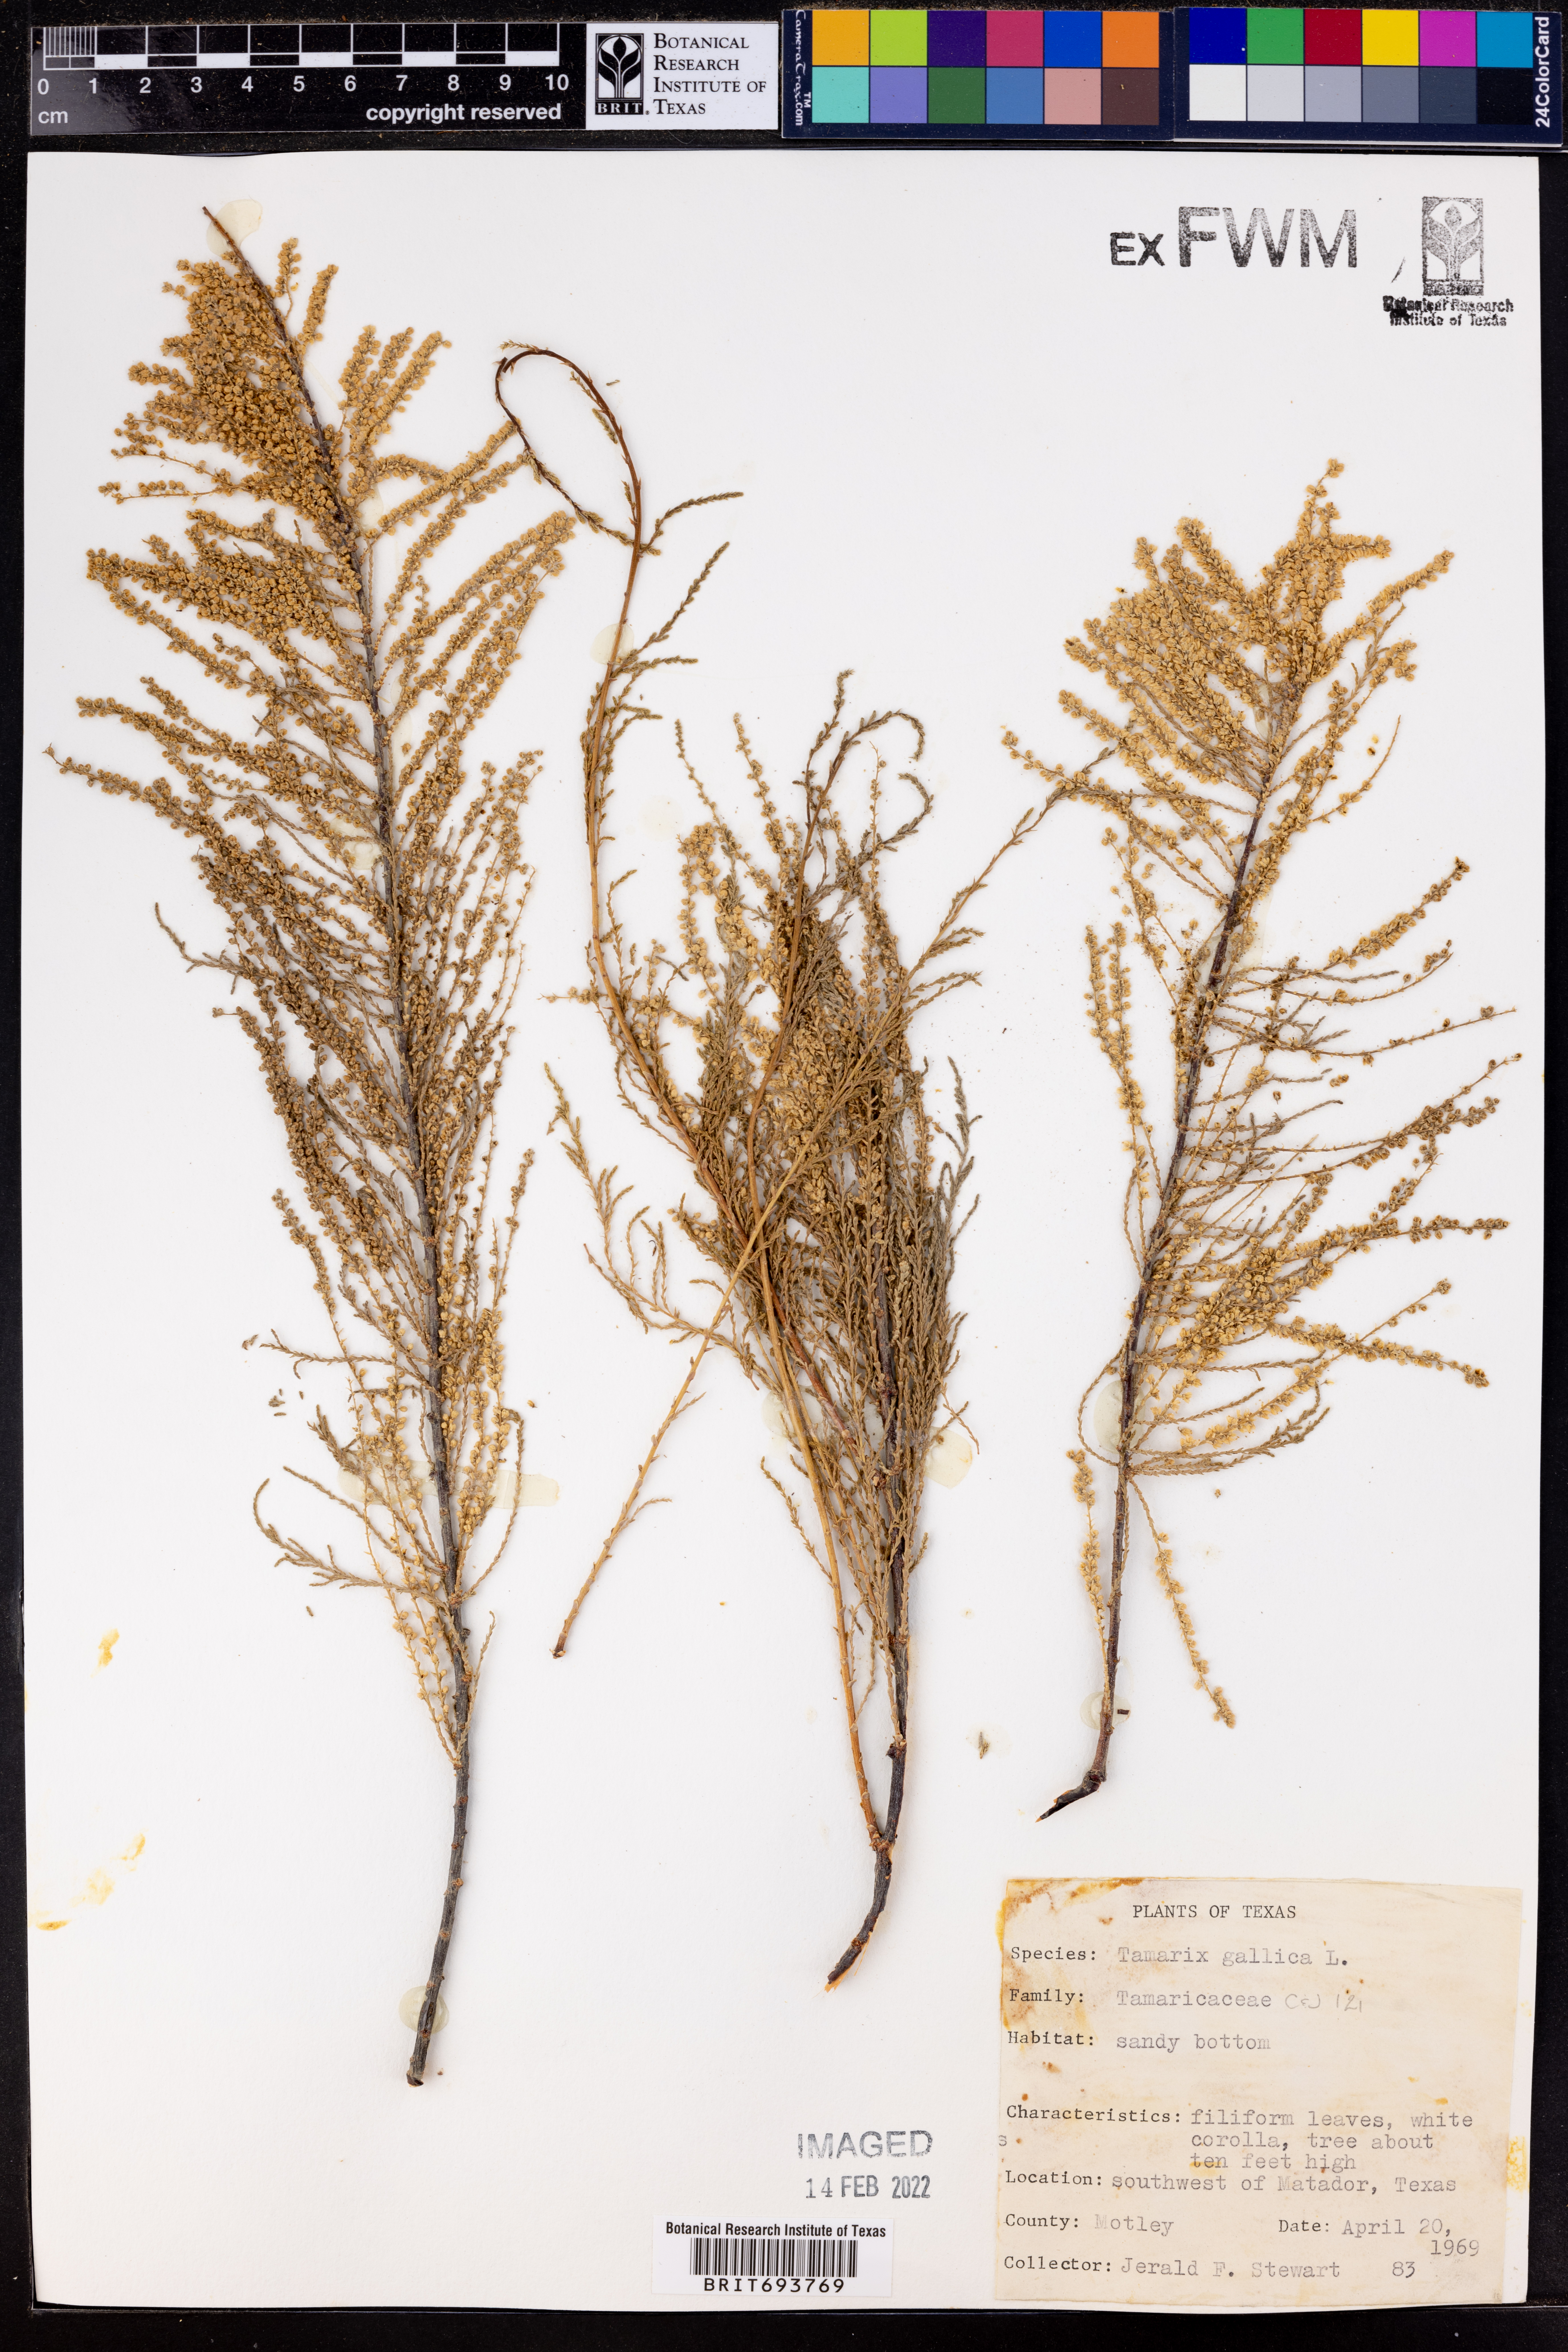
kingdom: Plantae
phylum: Tracheophyta
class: Magnoliopsida
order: Caryophyllales
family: Tamaricaceae
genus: Tamarix
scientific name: Tamarix gallica
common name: Tamarisk
